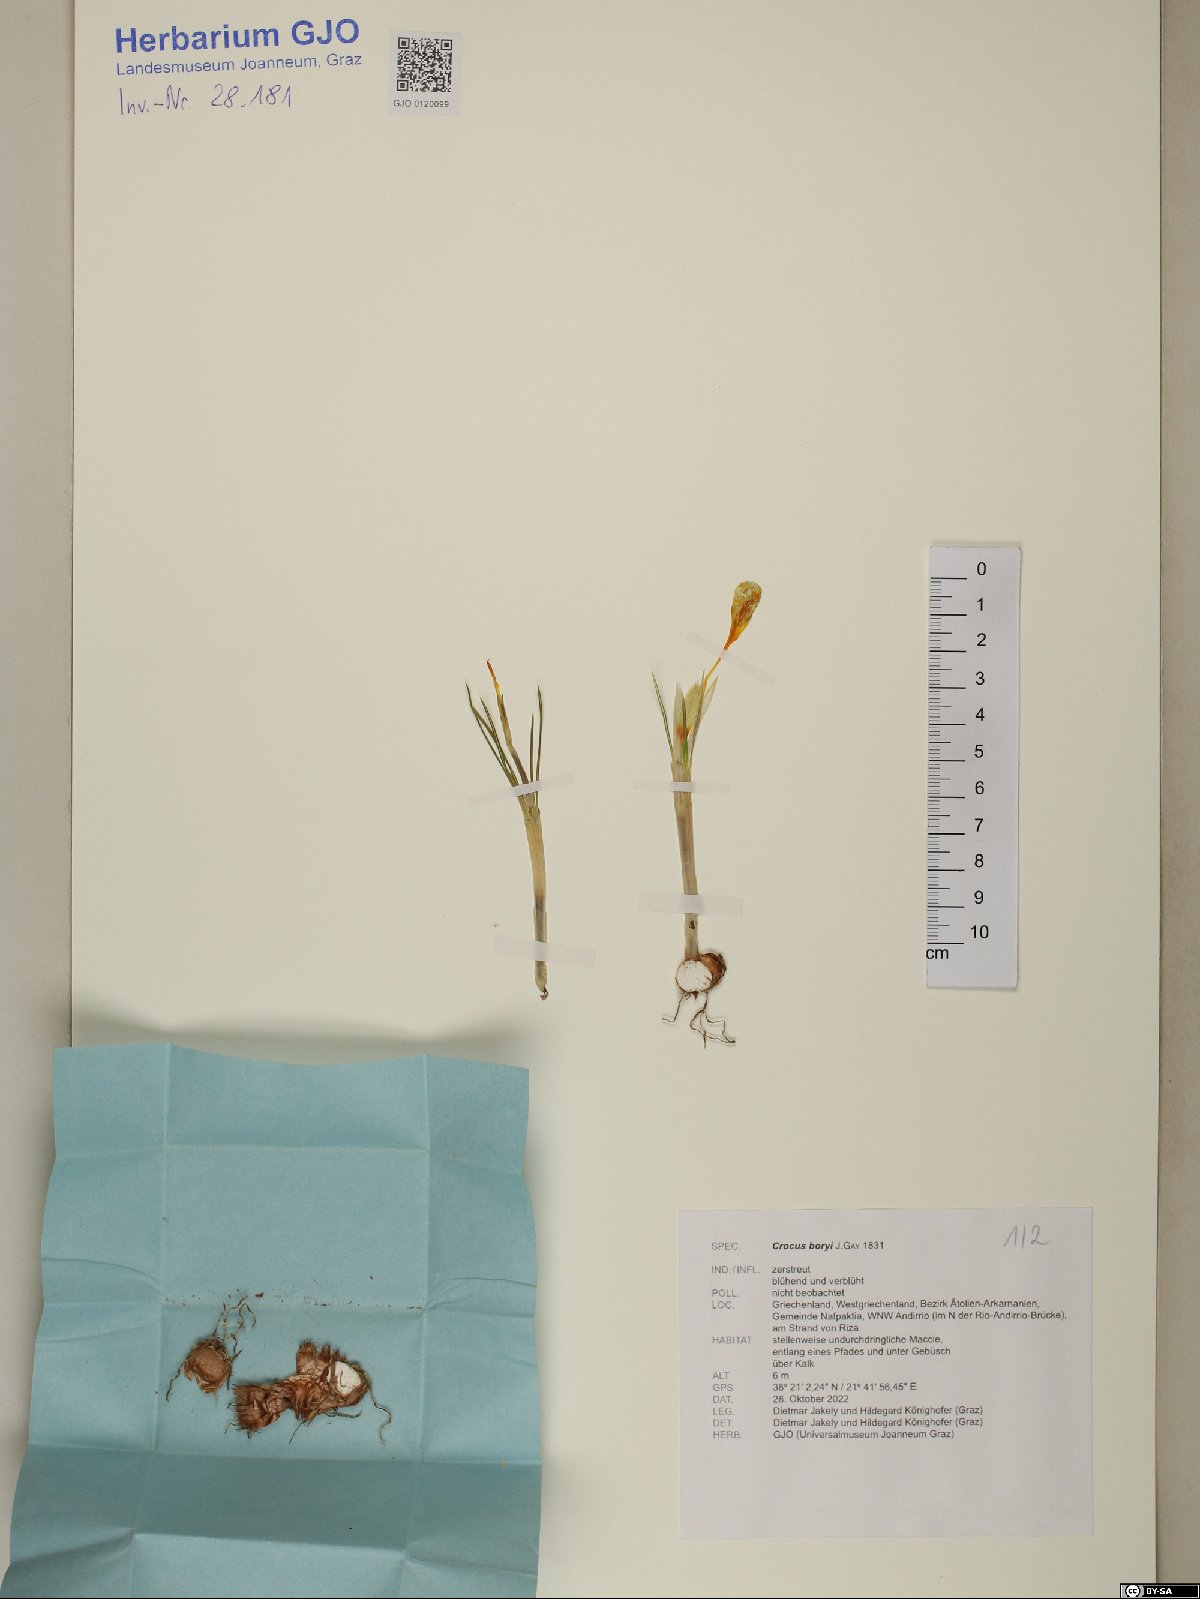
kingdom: Plantae
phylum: Tracheophyta
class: Liliopsida
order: Asparagales
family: Iridaceae
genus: Crocus
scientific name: Crocus boryi
